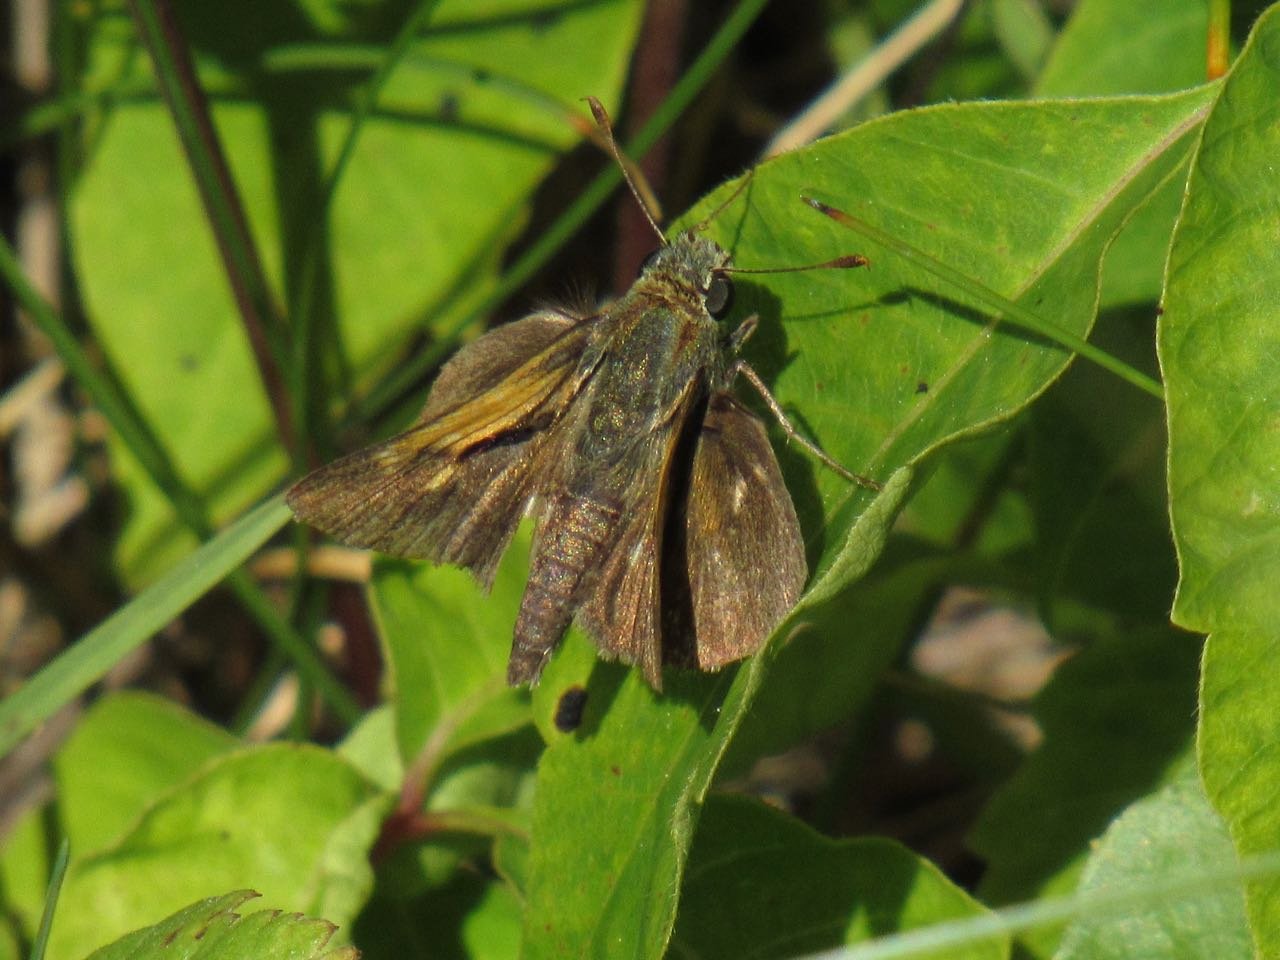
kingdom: Animalia
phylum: Arthropoda
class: Insecta
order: Lepidoptera
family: Hesperiidae
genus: Polites
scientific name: Polites themistocles
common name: Tawny-edged Skipper
